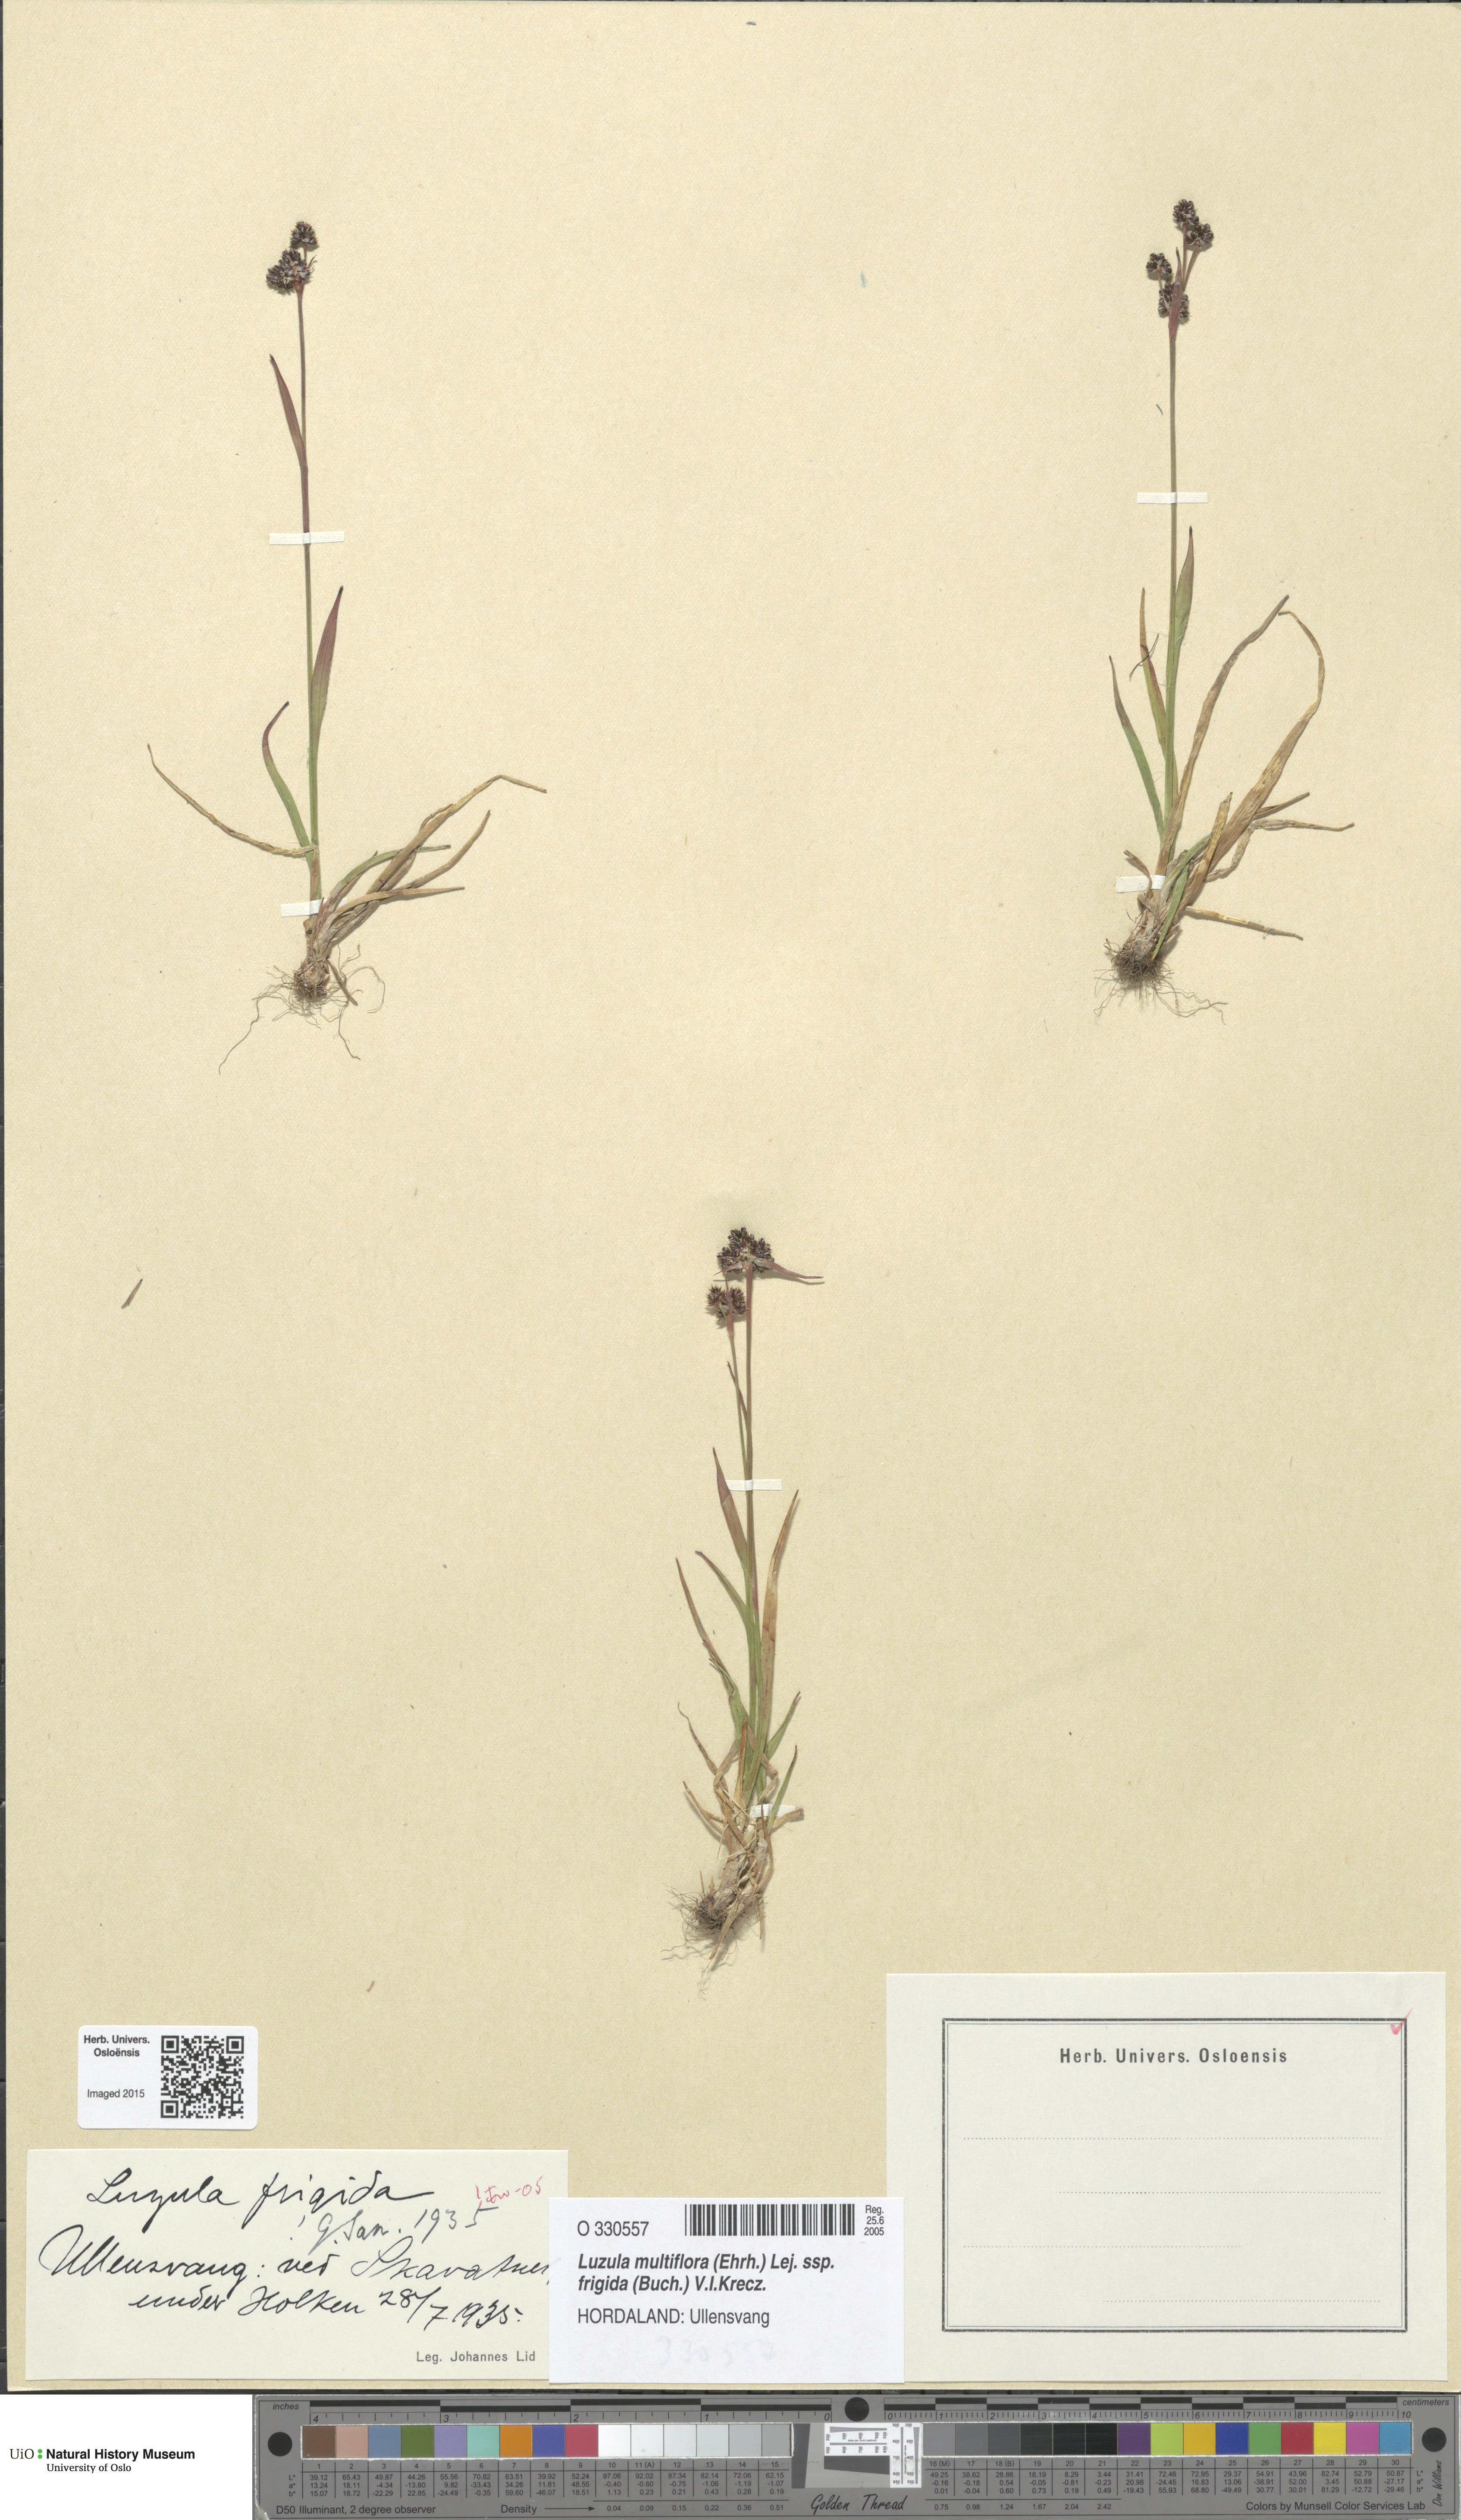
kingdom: Plantae
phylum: Tracheophyta
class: Liliopsida
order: Poales
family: Juncaceae
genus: Luzula
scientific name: Luzula multiflora
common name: Heath wood-rush
